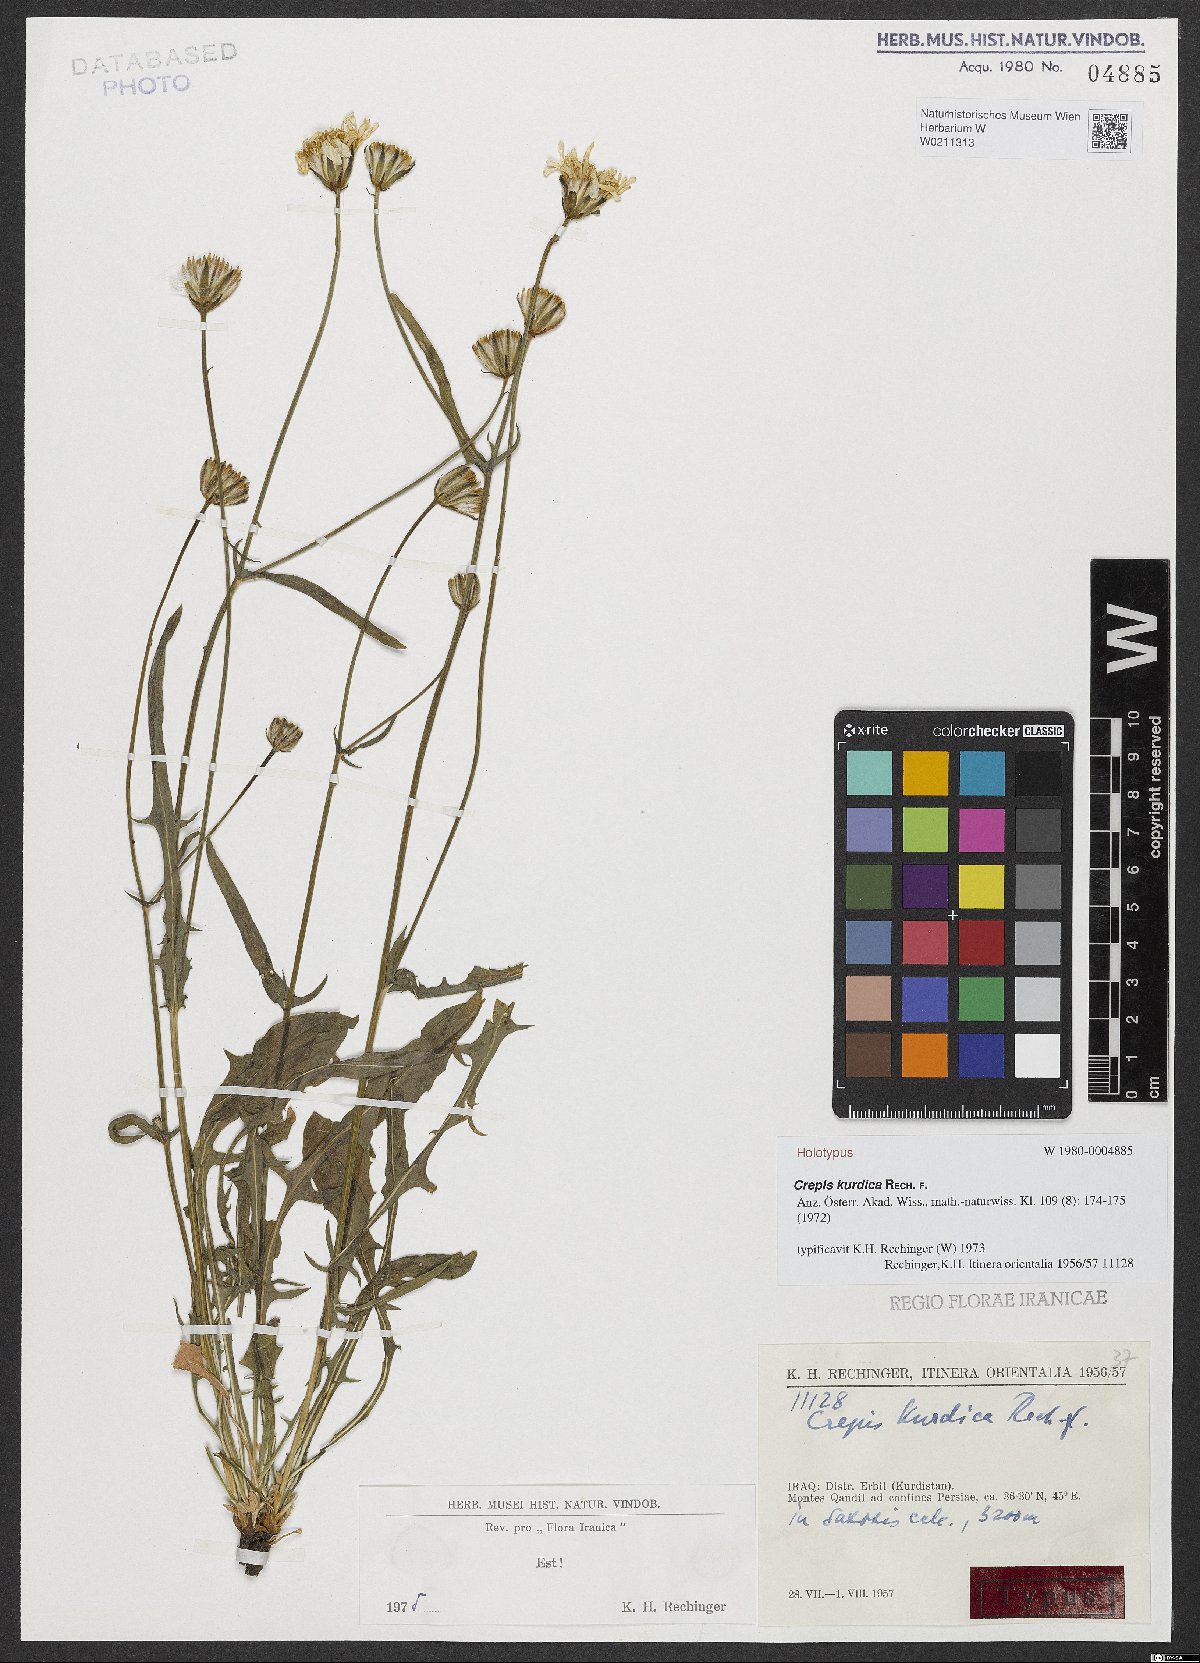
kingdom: Plantae
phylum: Tracheophyta
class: Magnoliopsida
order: Asterales
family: Asteraceae
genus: Crepis
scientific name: Crepis kurdica
